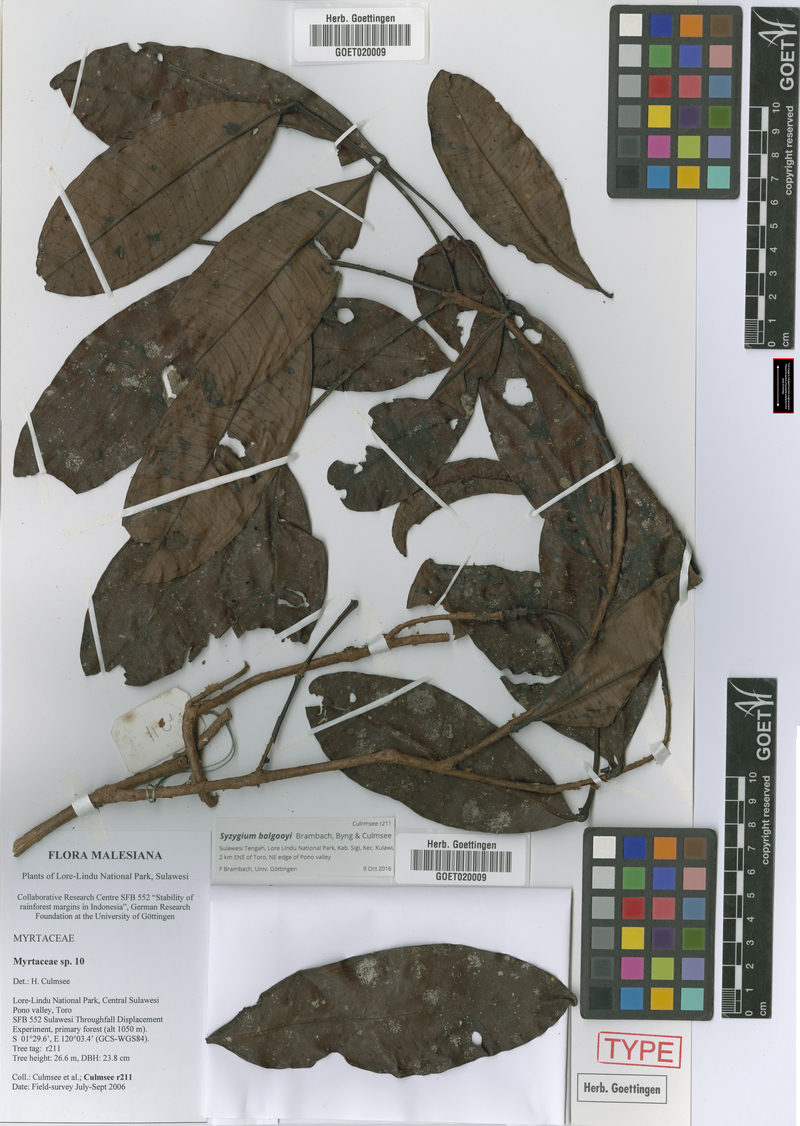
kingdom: Plantae
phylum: Tracheophyta
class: Magnoliopsida
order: Myrtales
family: Myrtaceae
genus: Syzygium
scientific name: Syzygium balgooyi
